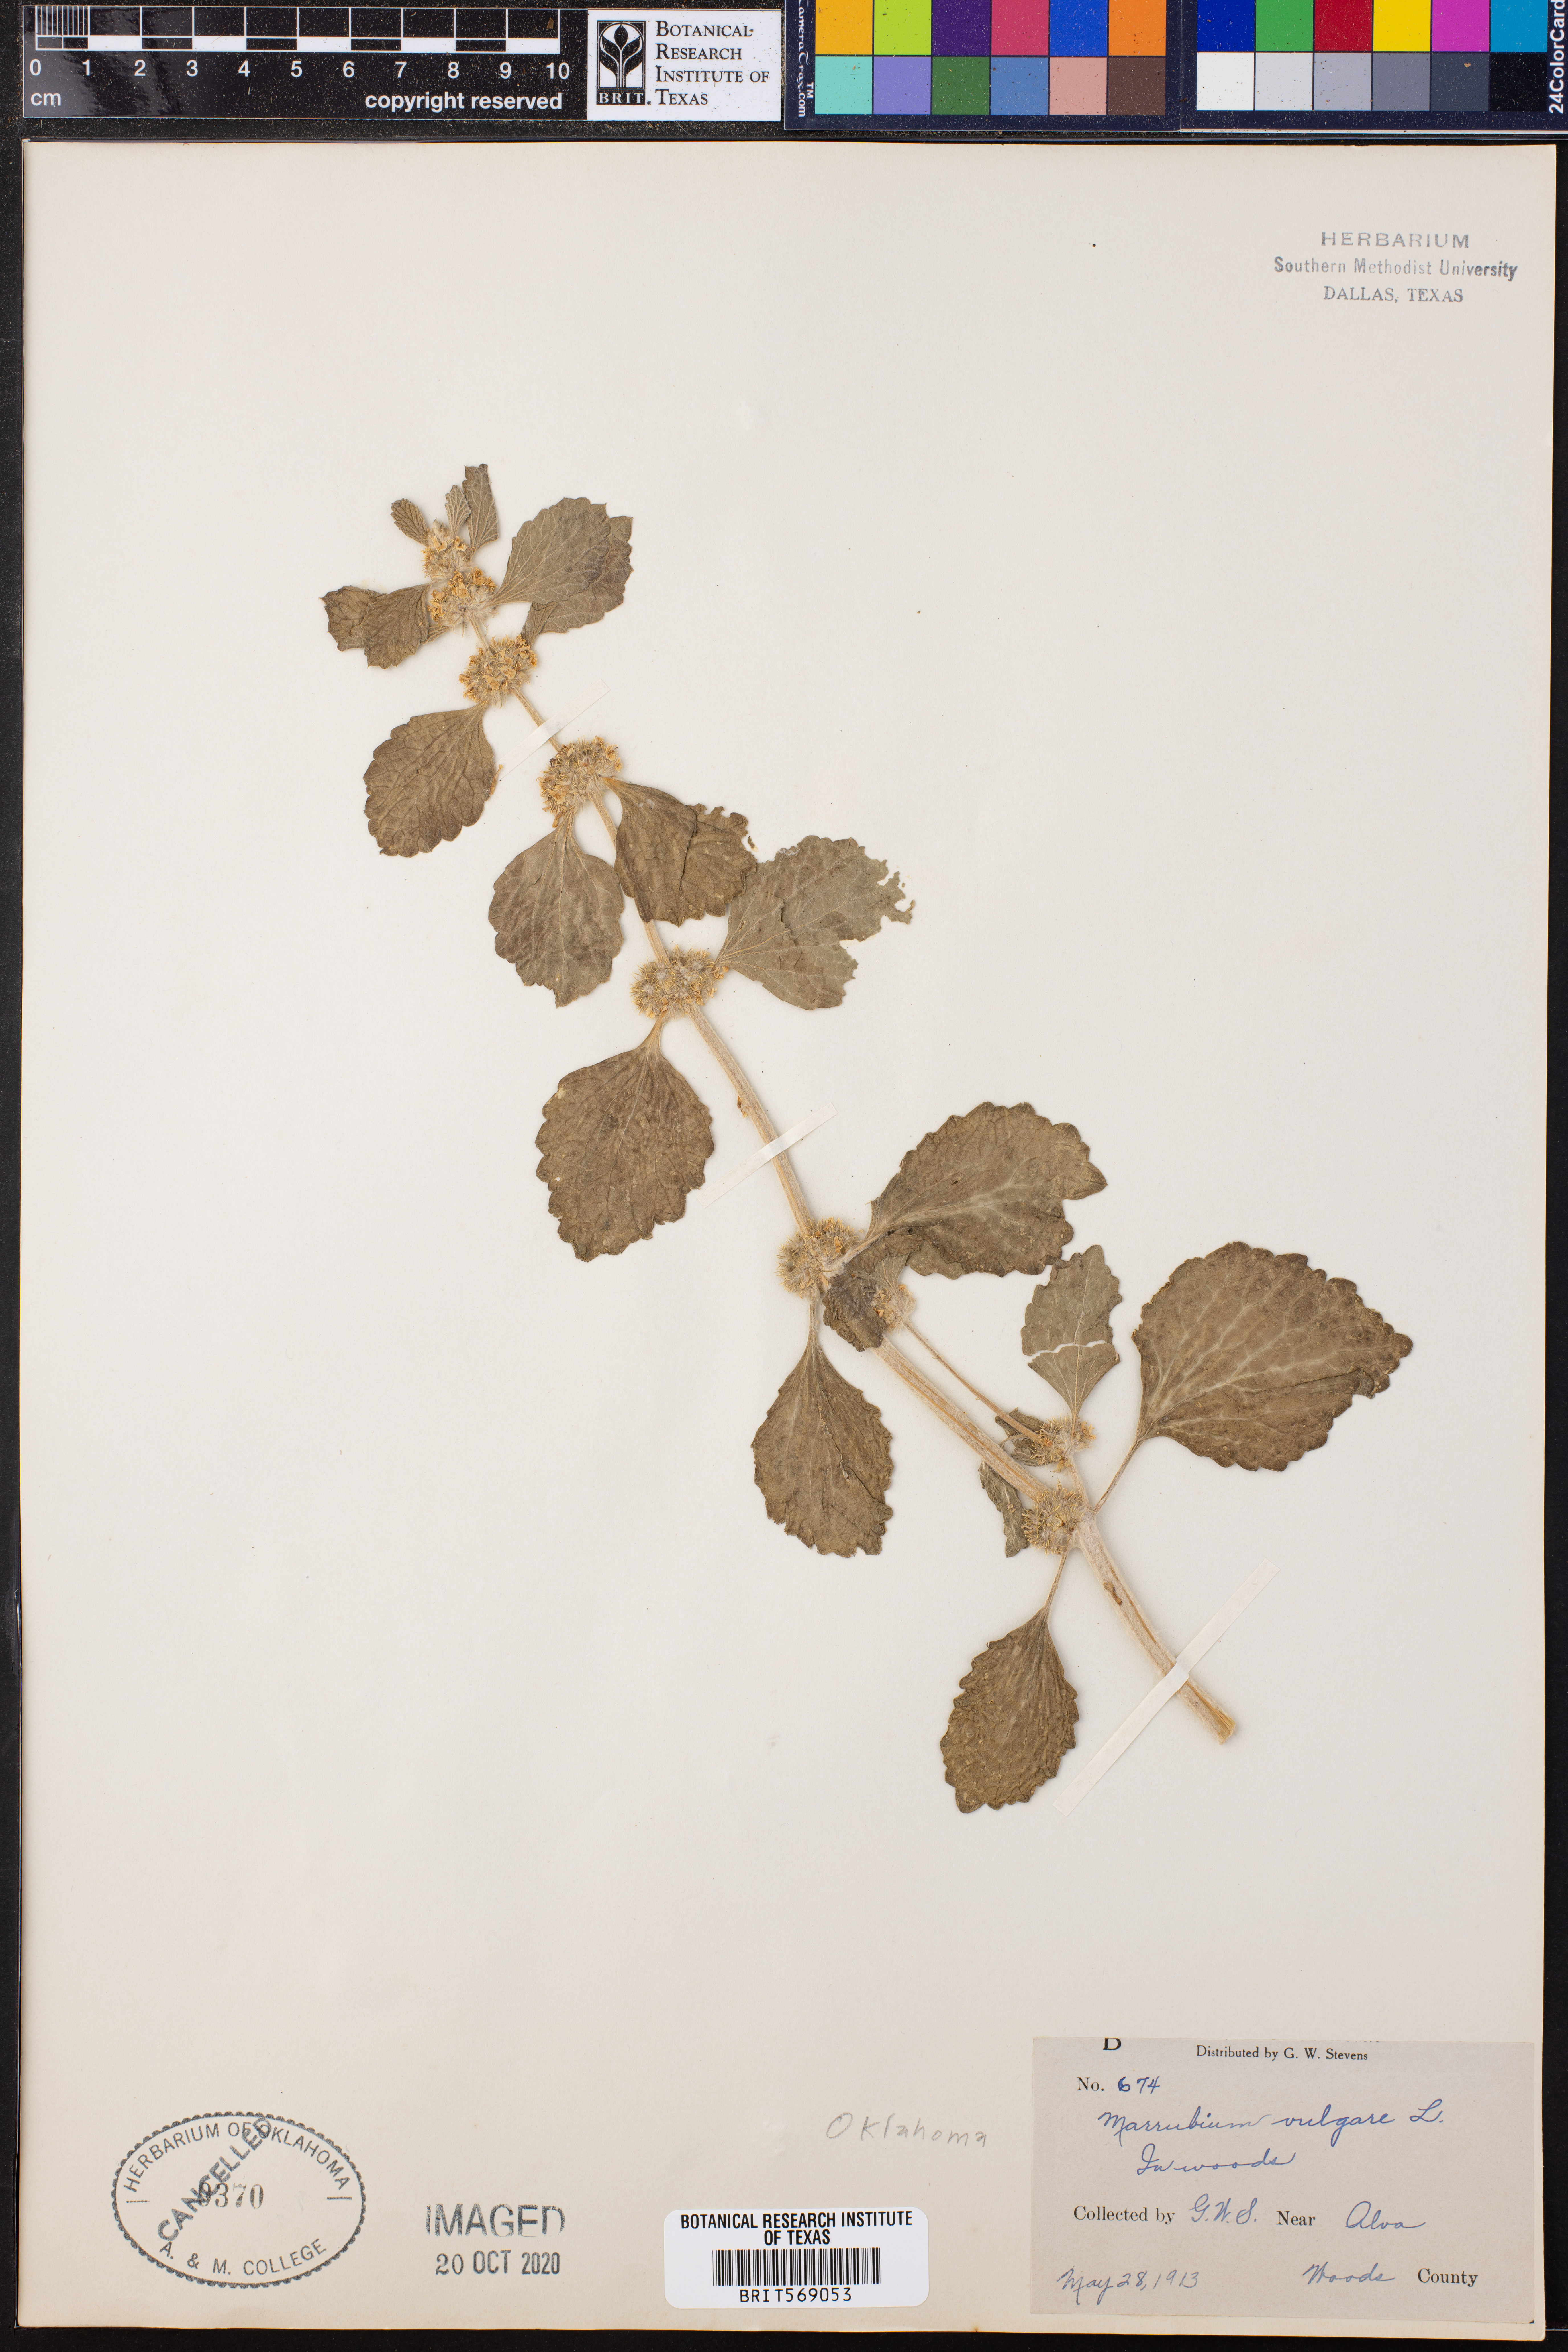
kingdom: Plantae
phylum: Tracheophyta
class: Magnoliopsida
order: Lamiales
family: Lamiaceae
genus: Marrubium
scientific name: Marrubium vulgare
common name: Horehound
